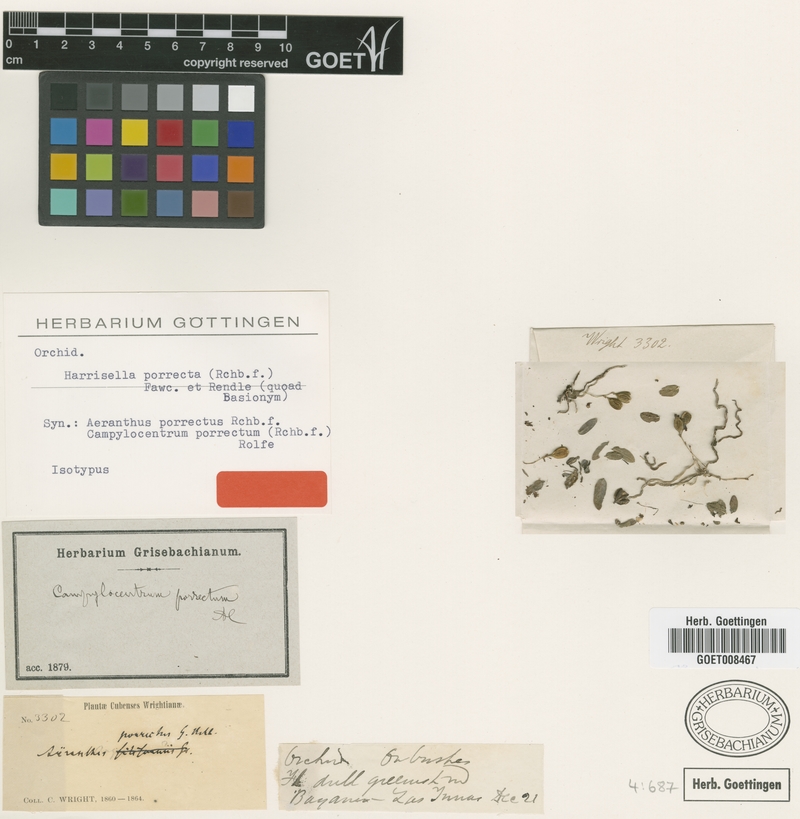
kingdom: Plantae
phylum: Tracheophyta
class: Liliopsida
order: Asparagales
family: Orchidaceae
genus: Dendrophylax
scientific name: Dendrophylax porrectus
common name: Needleroot airplant orchid
